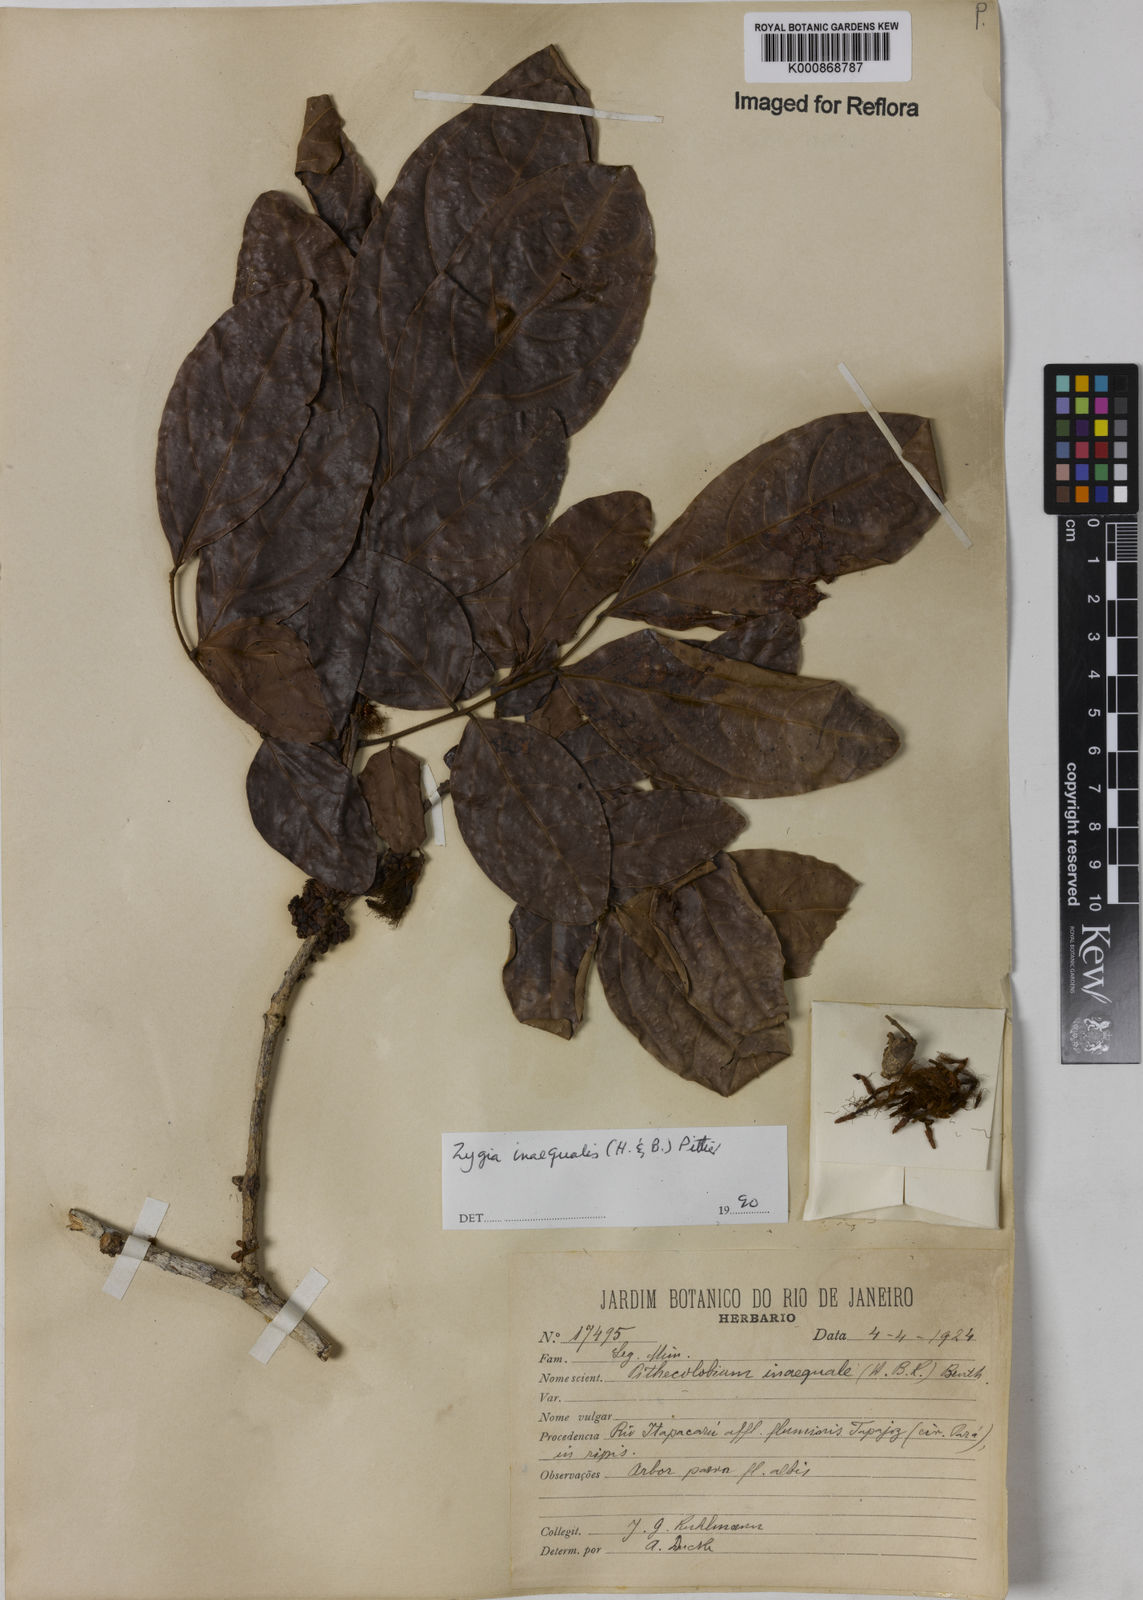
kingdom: Plantae
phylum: Tracheophyta
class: Magnoliopsida
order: Fabales
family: Fabaceae
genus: Zygia
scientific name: Zygia inaequalis
